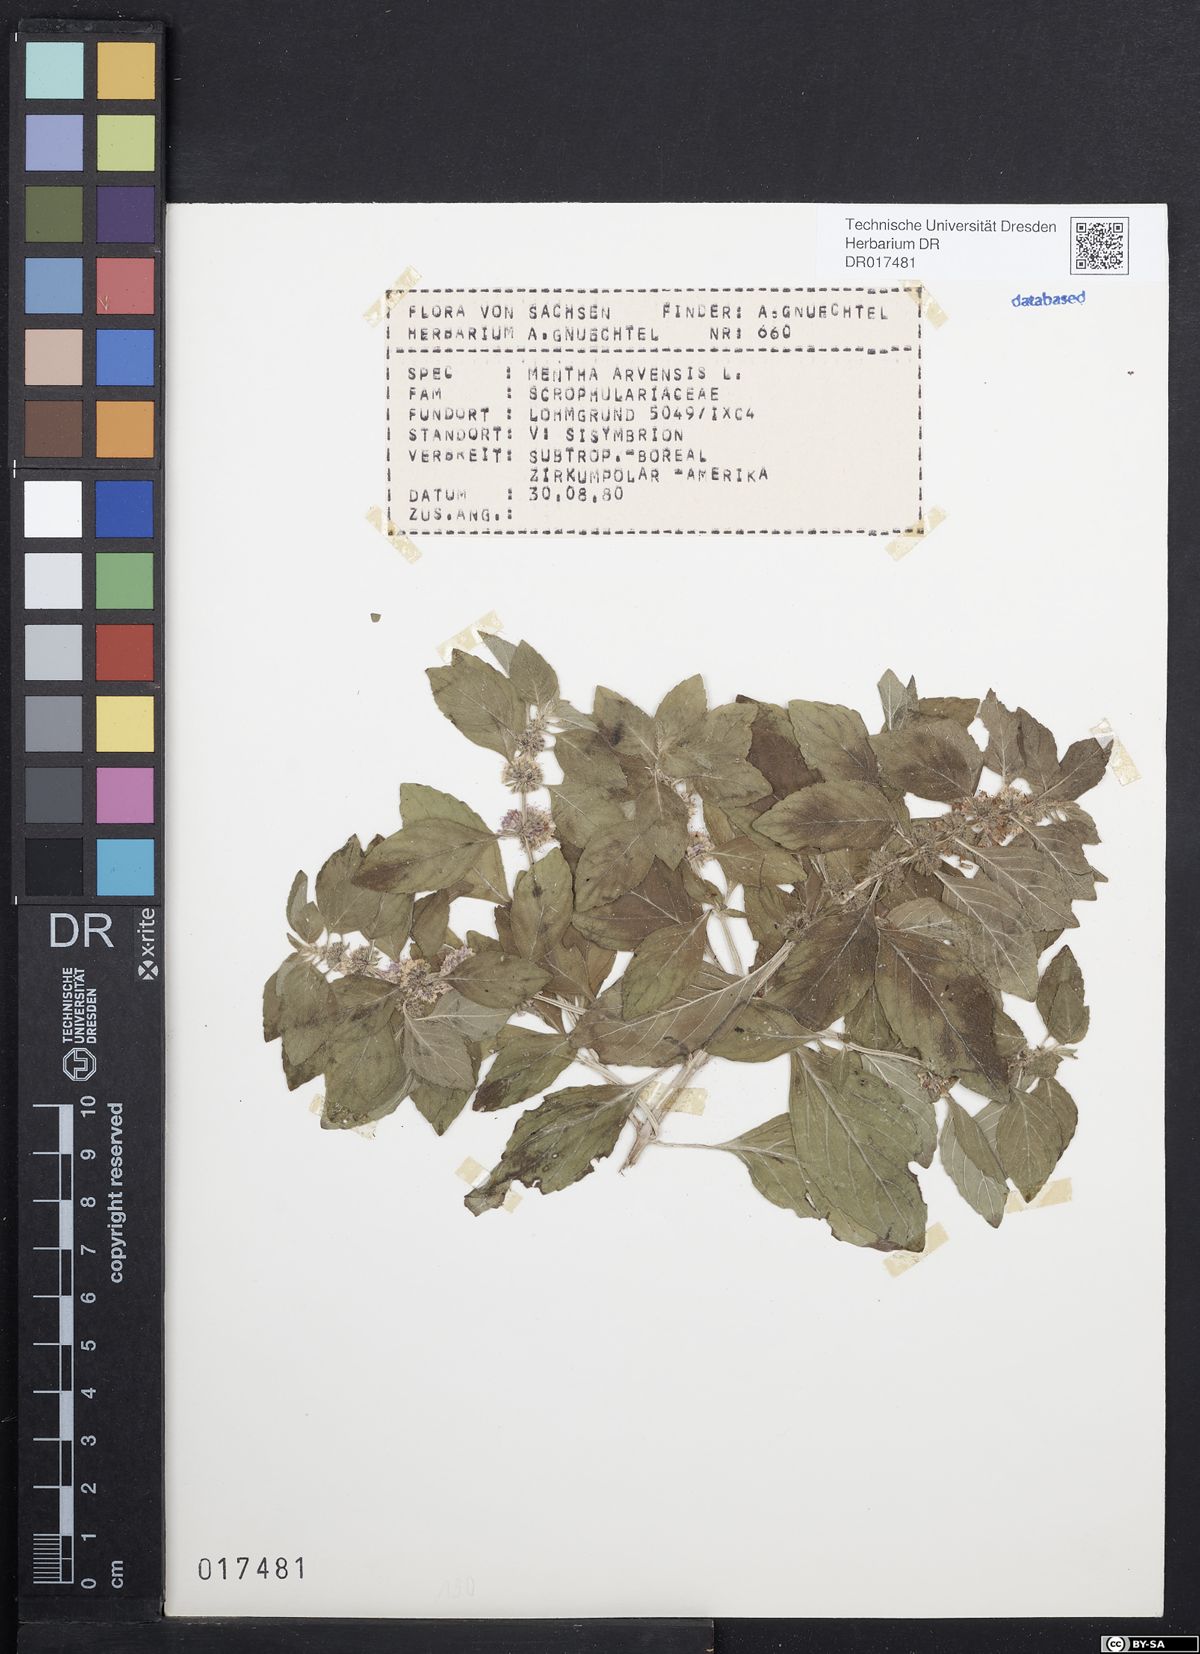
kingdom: Plantae
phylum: Tracheophyta
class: Magnoliopsida
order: Lamiales
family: Lamiaceae
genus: Mentha
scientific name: Mentha arvensis
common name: Corn mint
